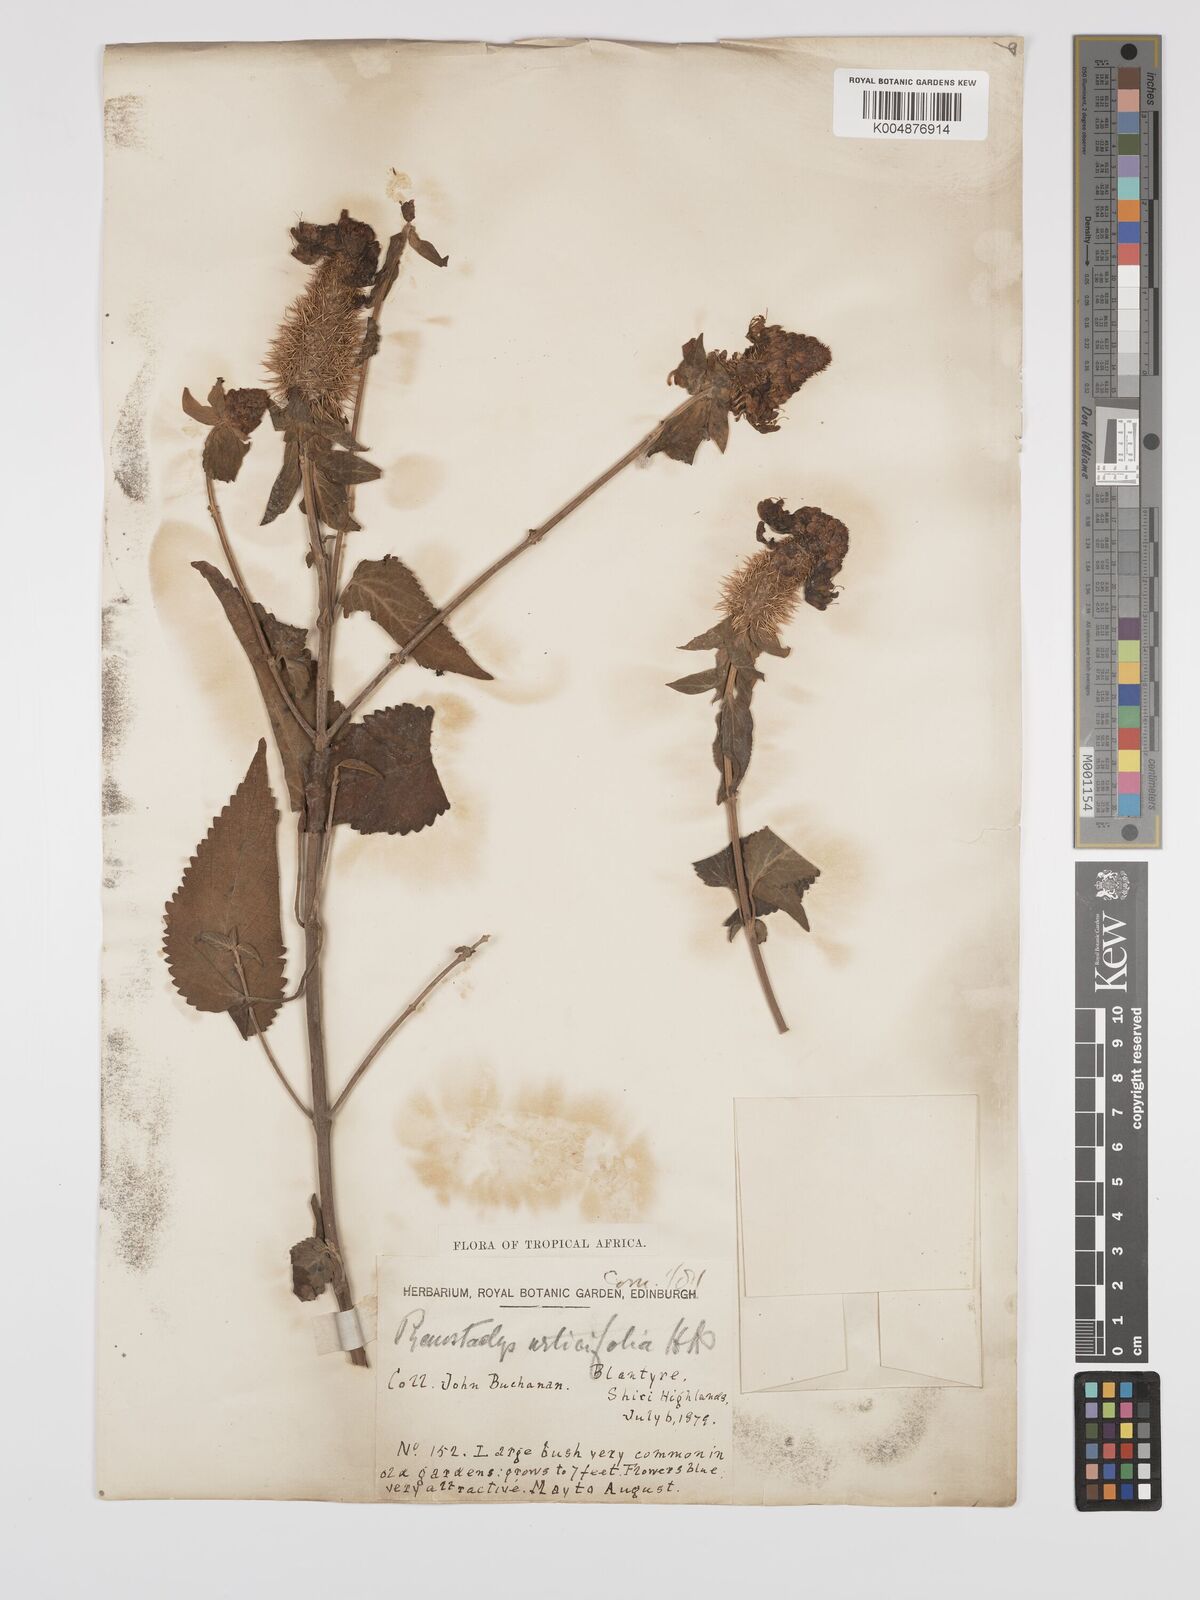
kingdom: Plantae
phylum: Tracheophyta
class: Magnoliopsida
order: Lamiales
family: Lamiaceae
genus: Coleus
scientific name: Coleus livingstonei
